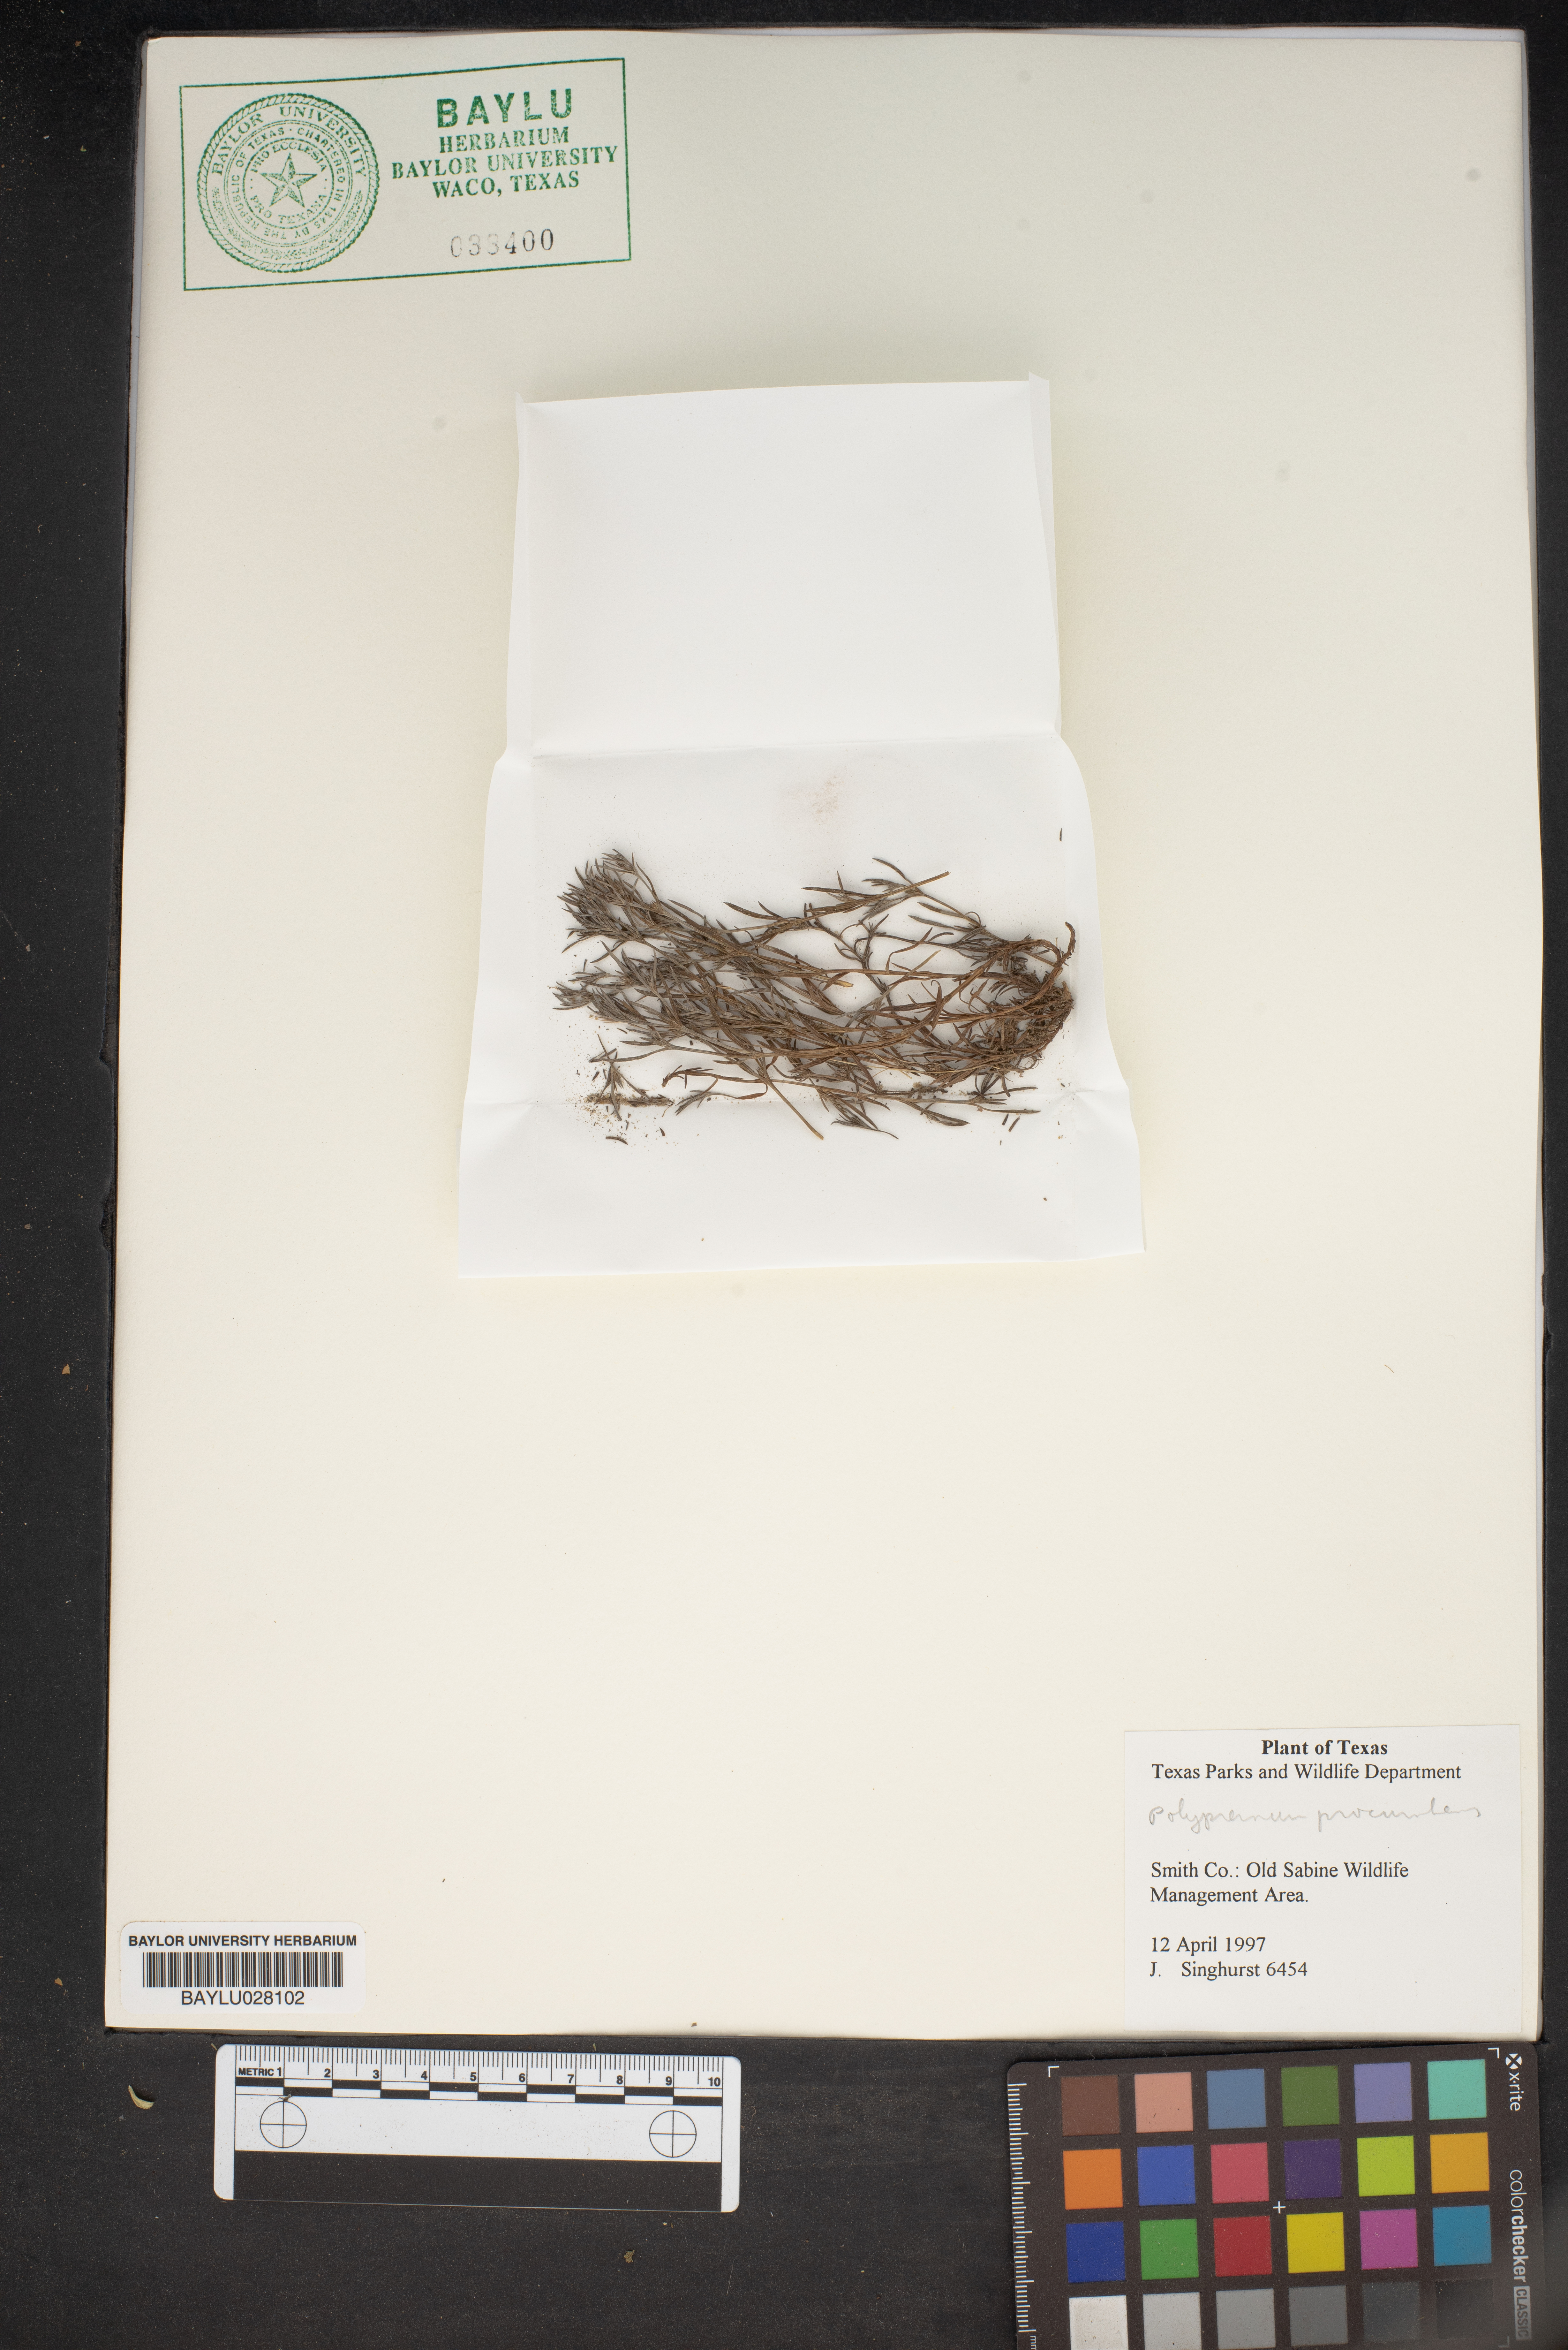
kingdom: Plantae
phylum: Tracheophyta
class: Magnoliopsida
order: Lamiales
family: Tetrachondraceae
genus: Polypremum
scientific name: Polypremum procumbens
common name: Juniper-leaf
